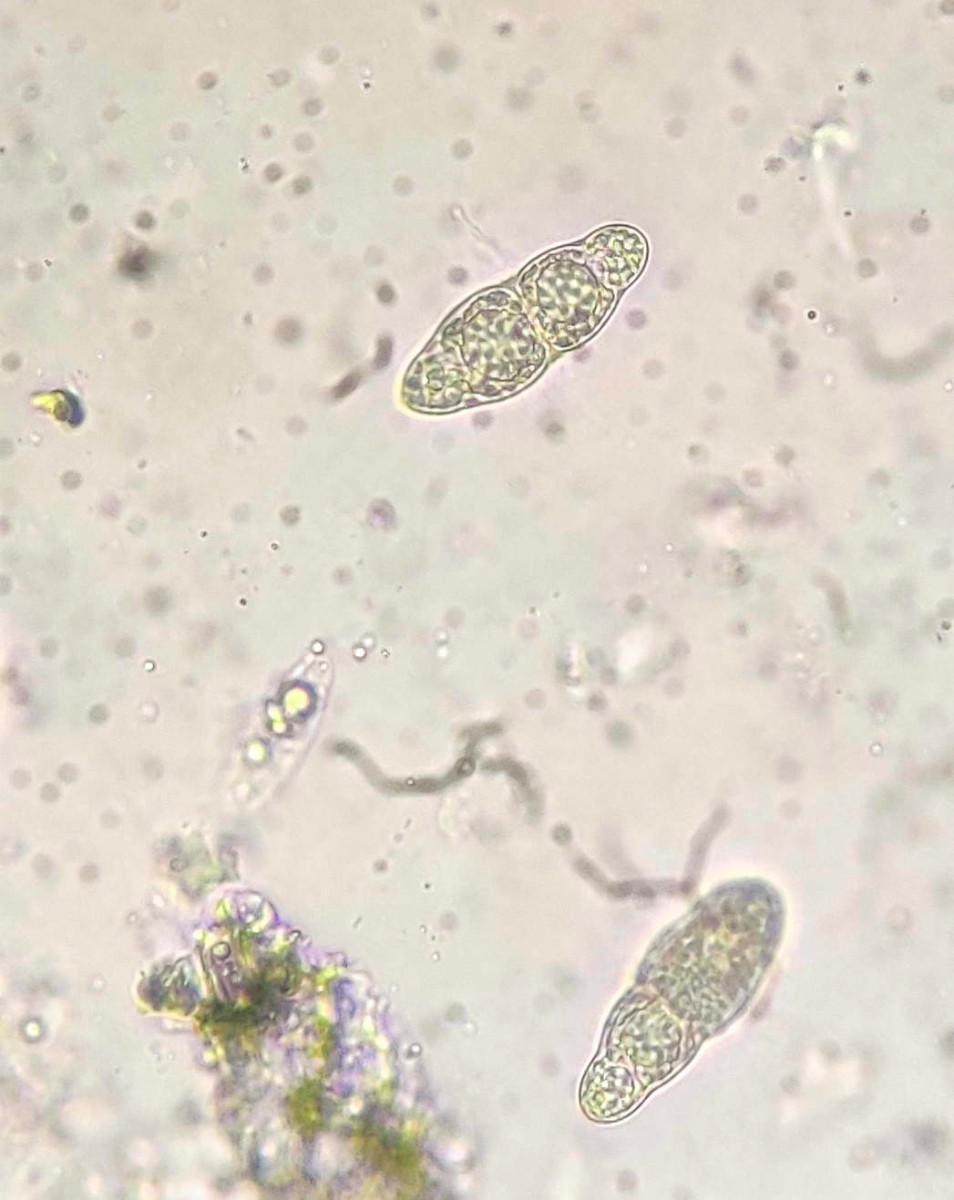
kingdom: Fungi
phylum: Ascomycota
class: Dothideomycetes
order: Pleosporales
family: Pleomassariaceae
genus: Asteromassaria
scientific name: Asteromassaria macrospora
